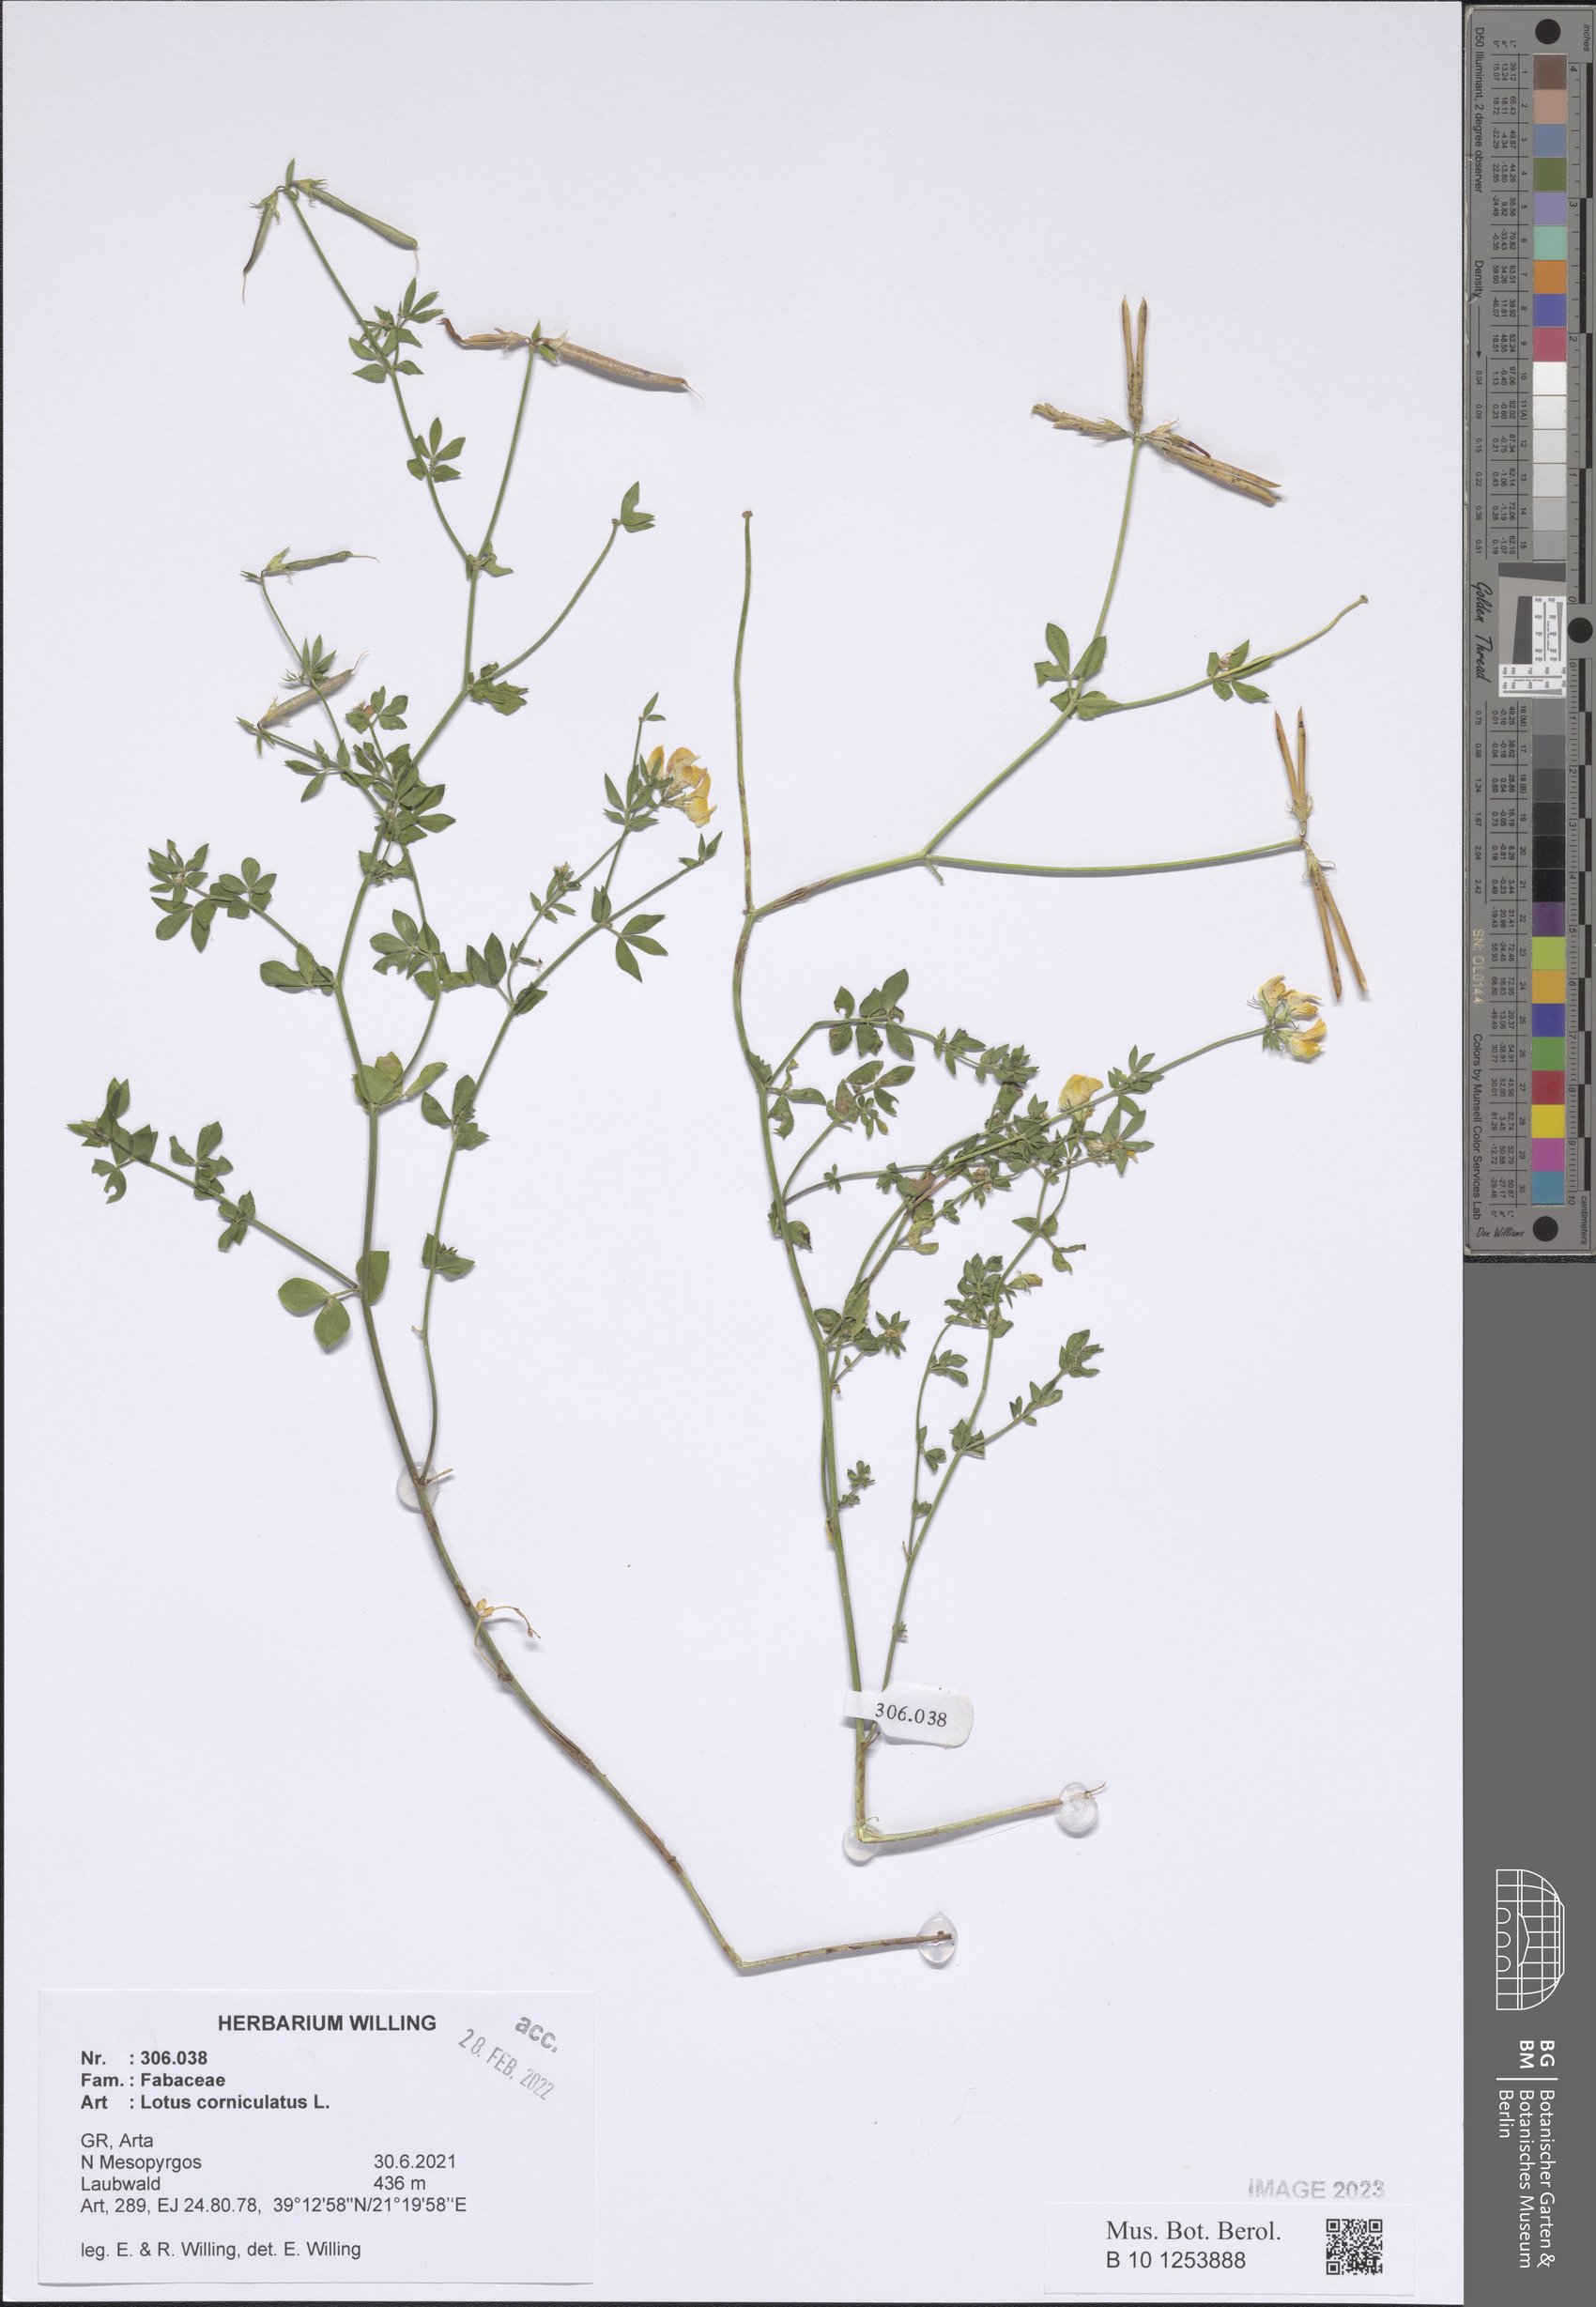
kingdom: Plantae
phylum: Tracheophyta
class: Magnoliopsida
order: Fabales
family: Fabaceae
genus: Lotus
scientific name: Lotus corniculatus
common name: Common bird's-foot-trefoil
